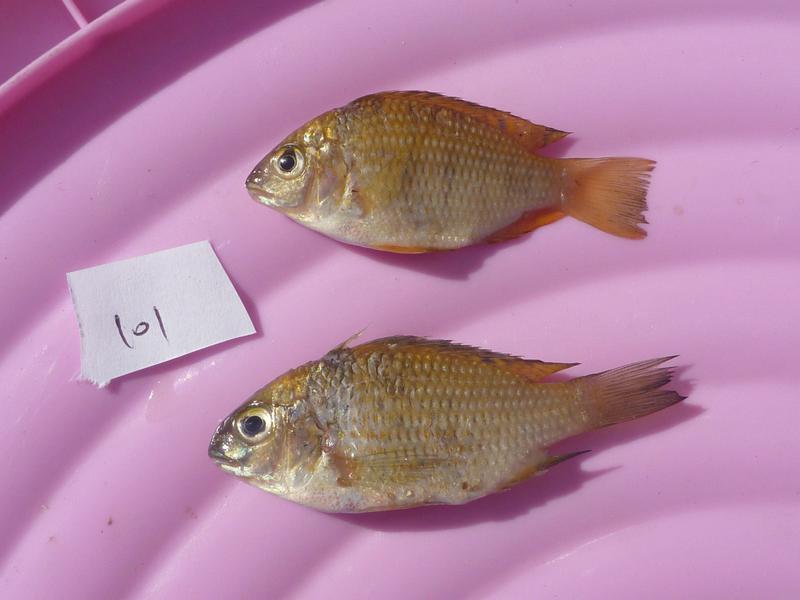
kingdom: Animalia
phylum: Chordata
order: Perciformes
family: Cichlidae
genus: Coptodon
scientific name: Coptodon rendalli
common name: Redbreast tilapia
